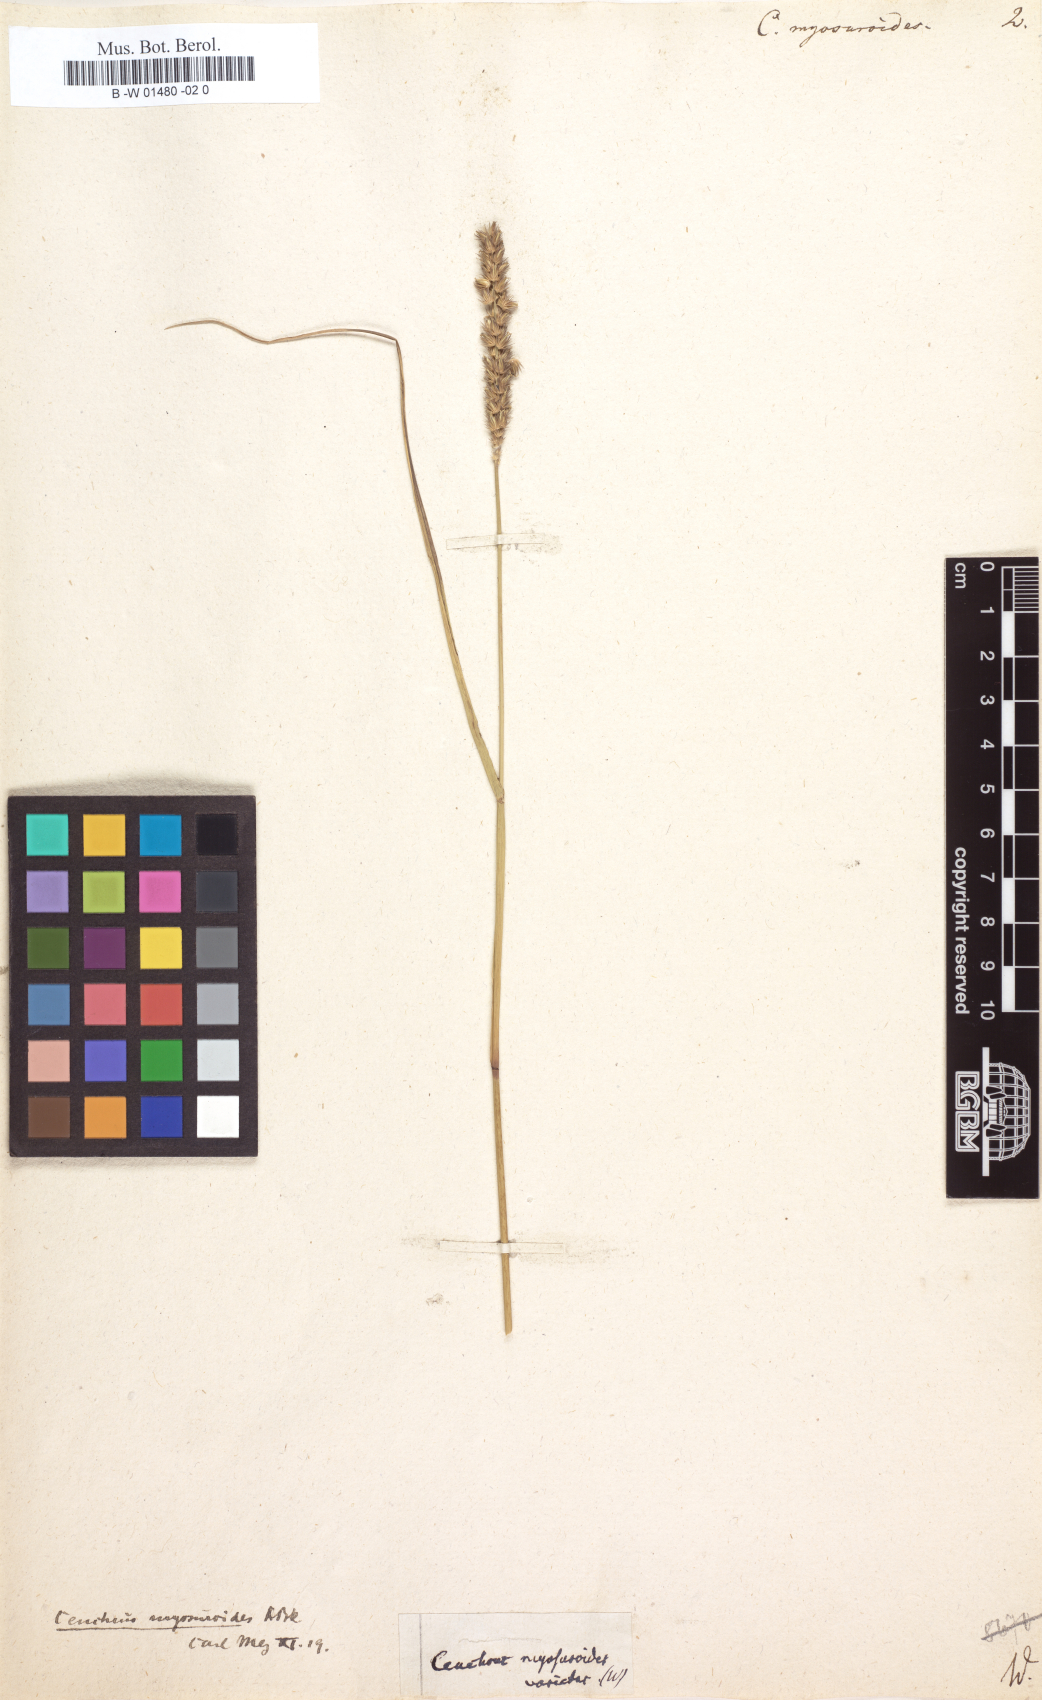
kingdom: Plantae
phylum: Tracheophyta
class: Liliopsida
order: Poales
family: Poaceae
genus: Cenchrus
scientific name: Cenchrus myosuroides
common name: Big sandbur
